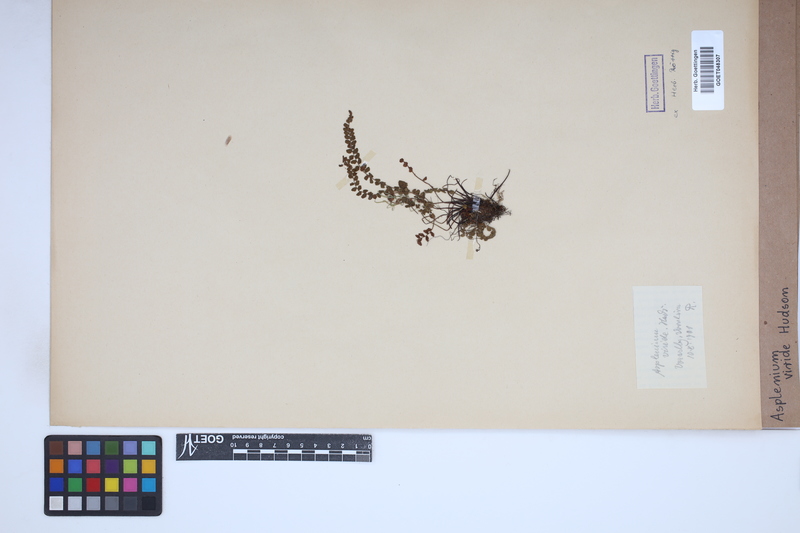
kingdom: Plantae
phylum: Tracheophyta
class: Polypodiopsida
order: Polypodiales
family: Aspleniaceae
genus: Asplenium
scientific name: Asplenium viride
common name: Green spleenwort
